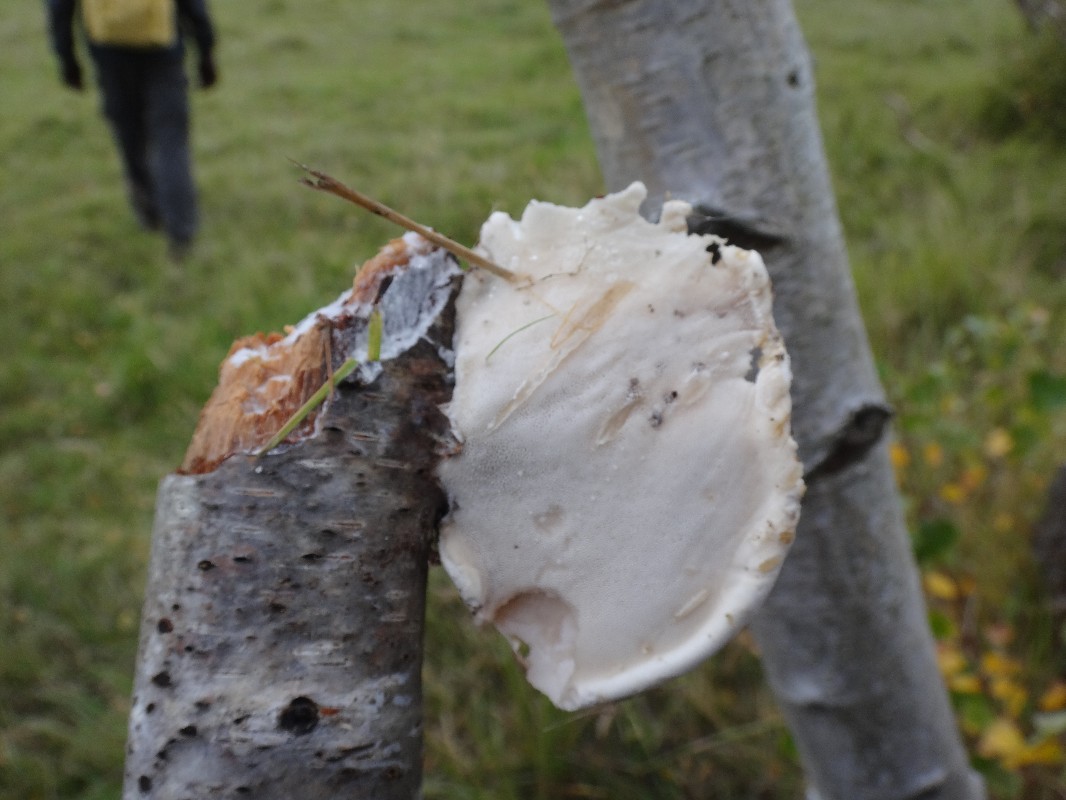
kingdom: Fungi
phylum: Basidiomycota
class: Agaricomycetes
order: Polyporales
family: Fomitopsidaceae
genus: Fomitopsis
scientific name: Fomitopsis betulina
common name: birkeporesvamp
